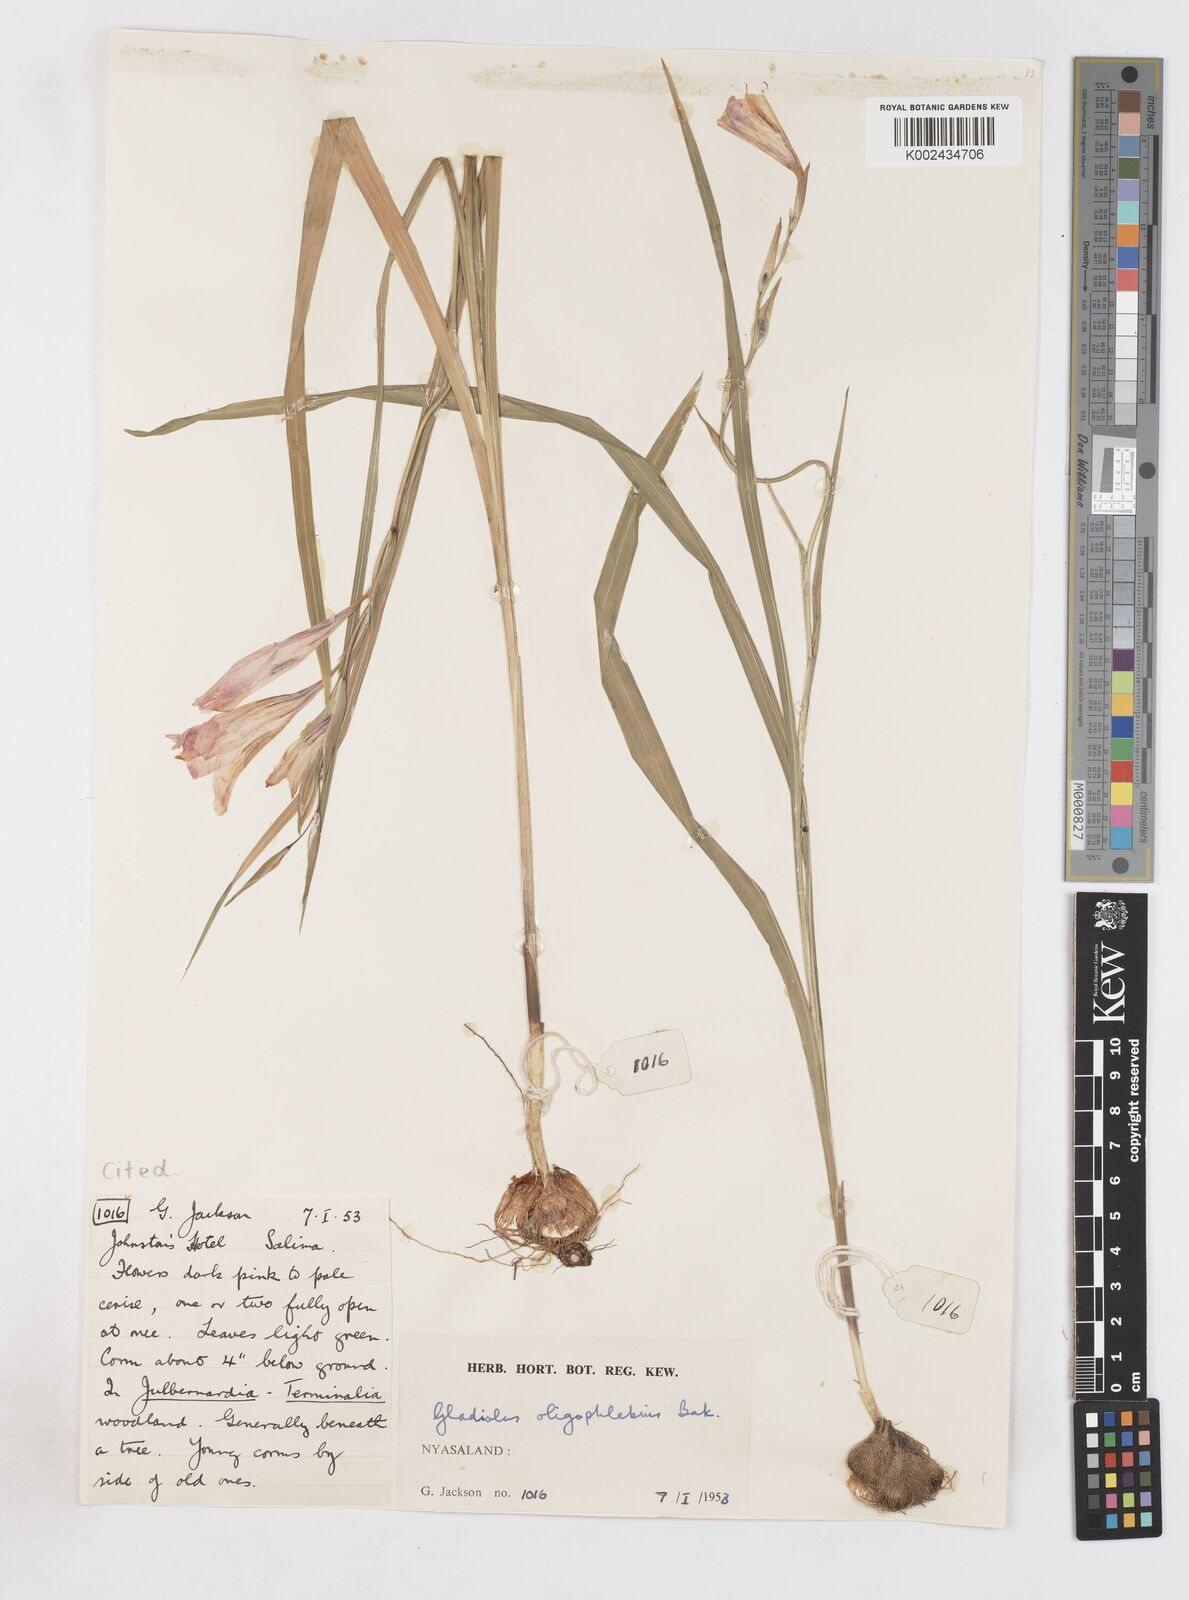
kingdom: Plantae
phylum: Tracheophyta
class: Liliopsida
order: Asparagales
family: Iridaceae
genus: Gladiolus
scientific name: Gladiolus oligophlebius
